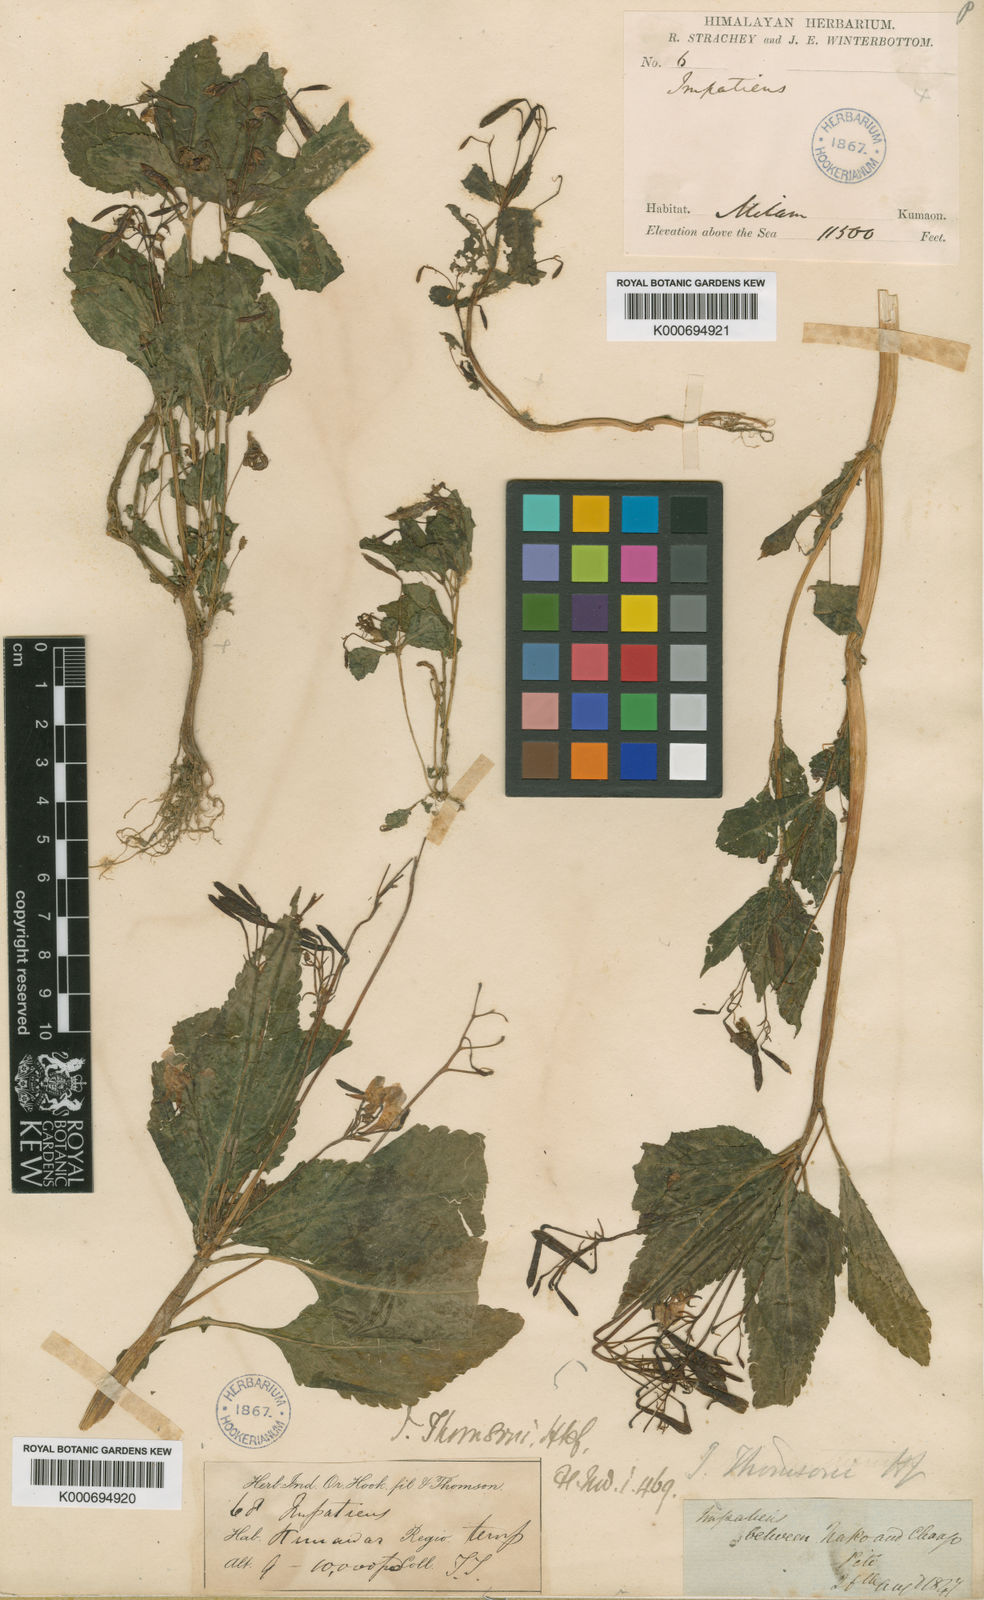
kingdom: Plantae
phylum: Tracheophyta
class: Magnoliopsida
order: Ericales
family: Balsaminaceae
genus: Impatiens
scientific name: Impatiens thomsonii
